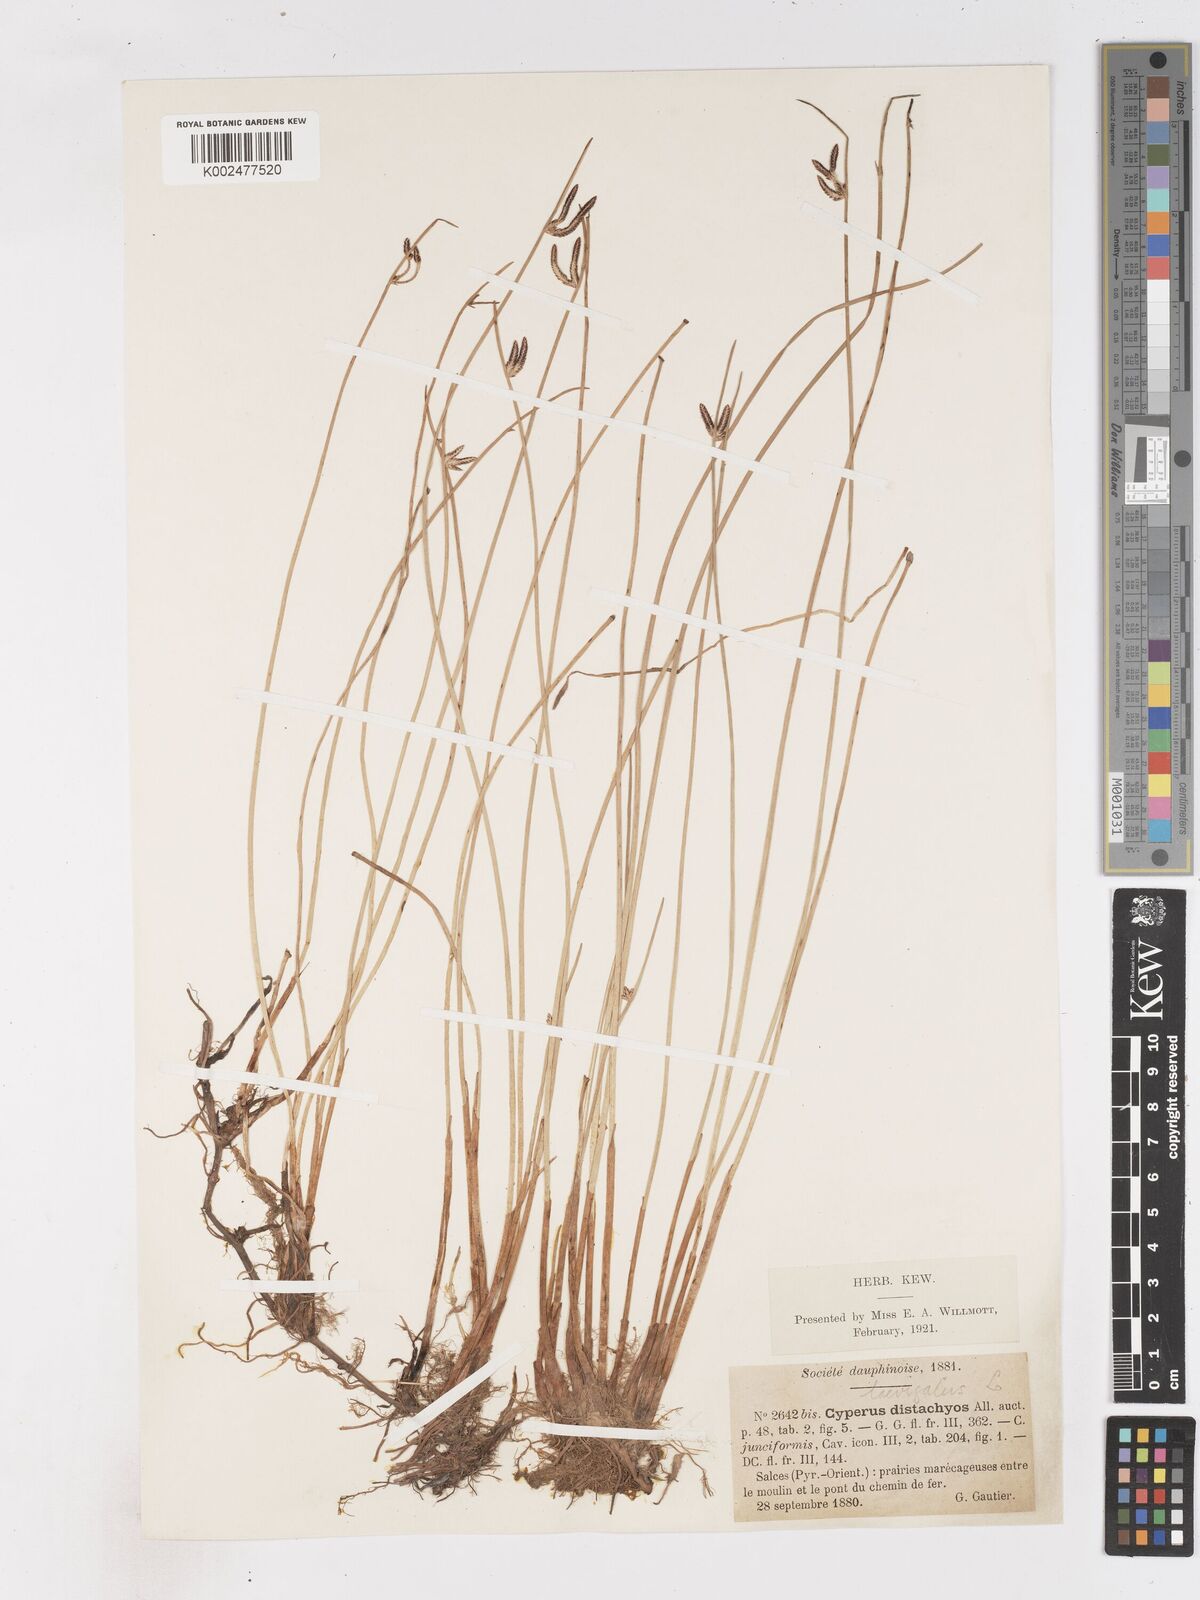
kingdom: Plantae
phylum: Tracheophyta
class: Liliopsida
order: Poales
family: Cyperaceae
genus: Cyperus
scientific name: Cyperus laevigatus
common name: Smooth flat sedge
